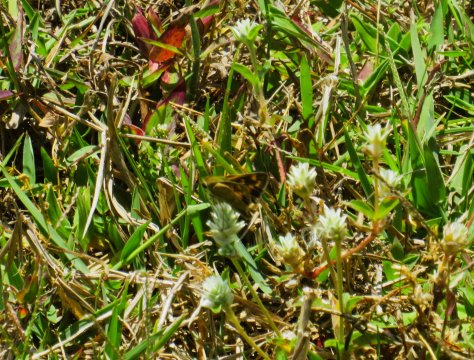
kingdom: Animalia
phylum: Arthropoda
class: Insecta
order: Lepidoptera
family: Hesperiidae
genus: Atalopedes
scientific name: Atalopedes campestris
